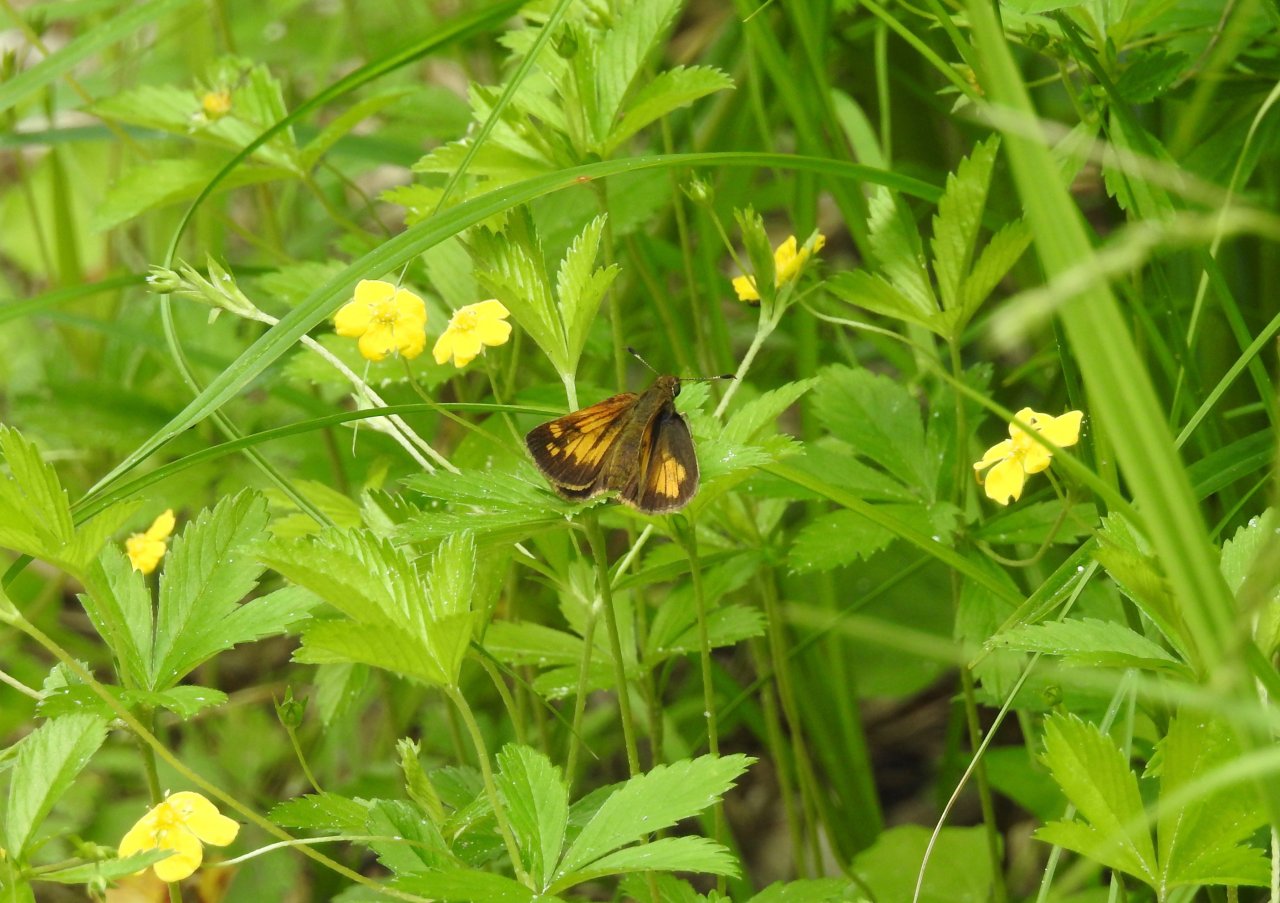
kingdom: Animalia
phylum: Arthropoda
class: Insecta
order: Lepidoptera
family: Hesperiidae
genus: Lon
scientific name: Lon hobomok
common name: Hobomok Skipper
